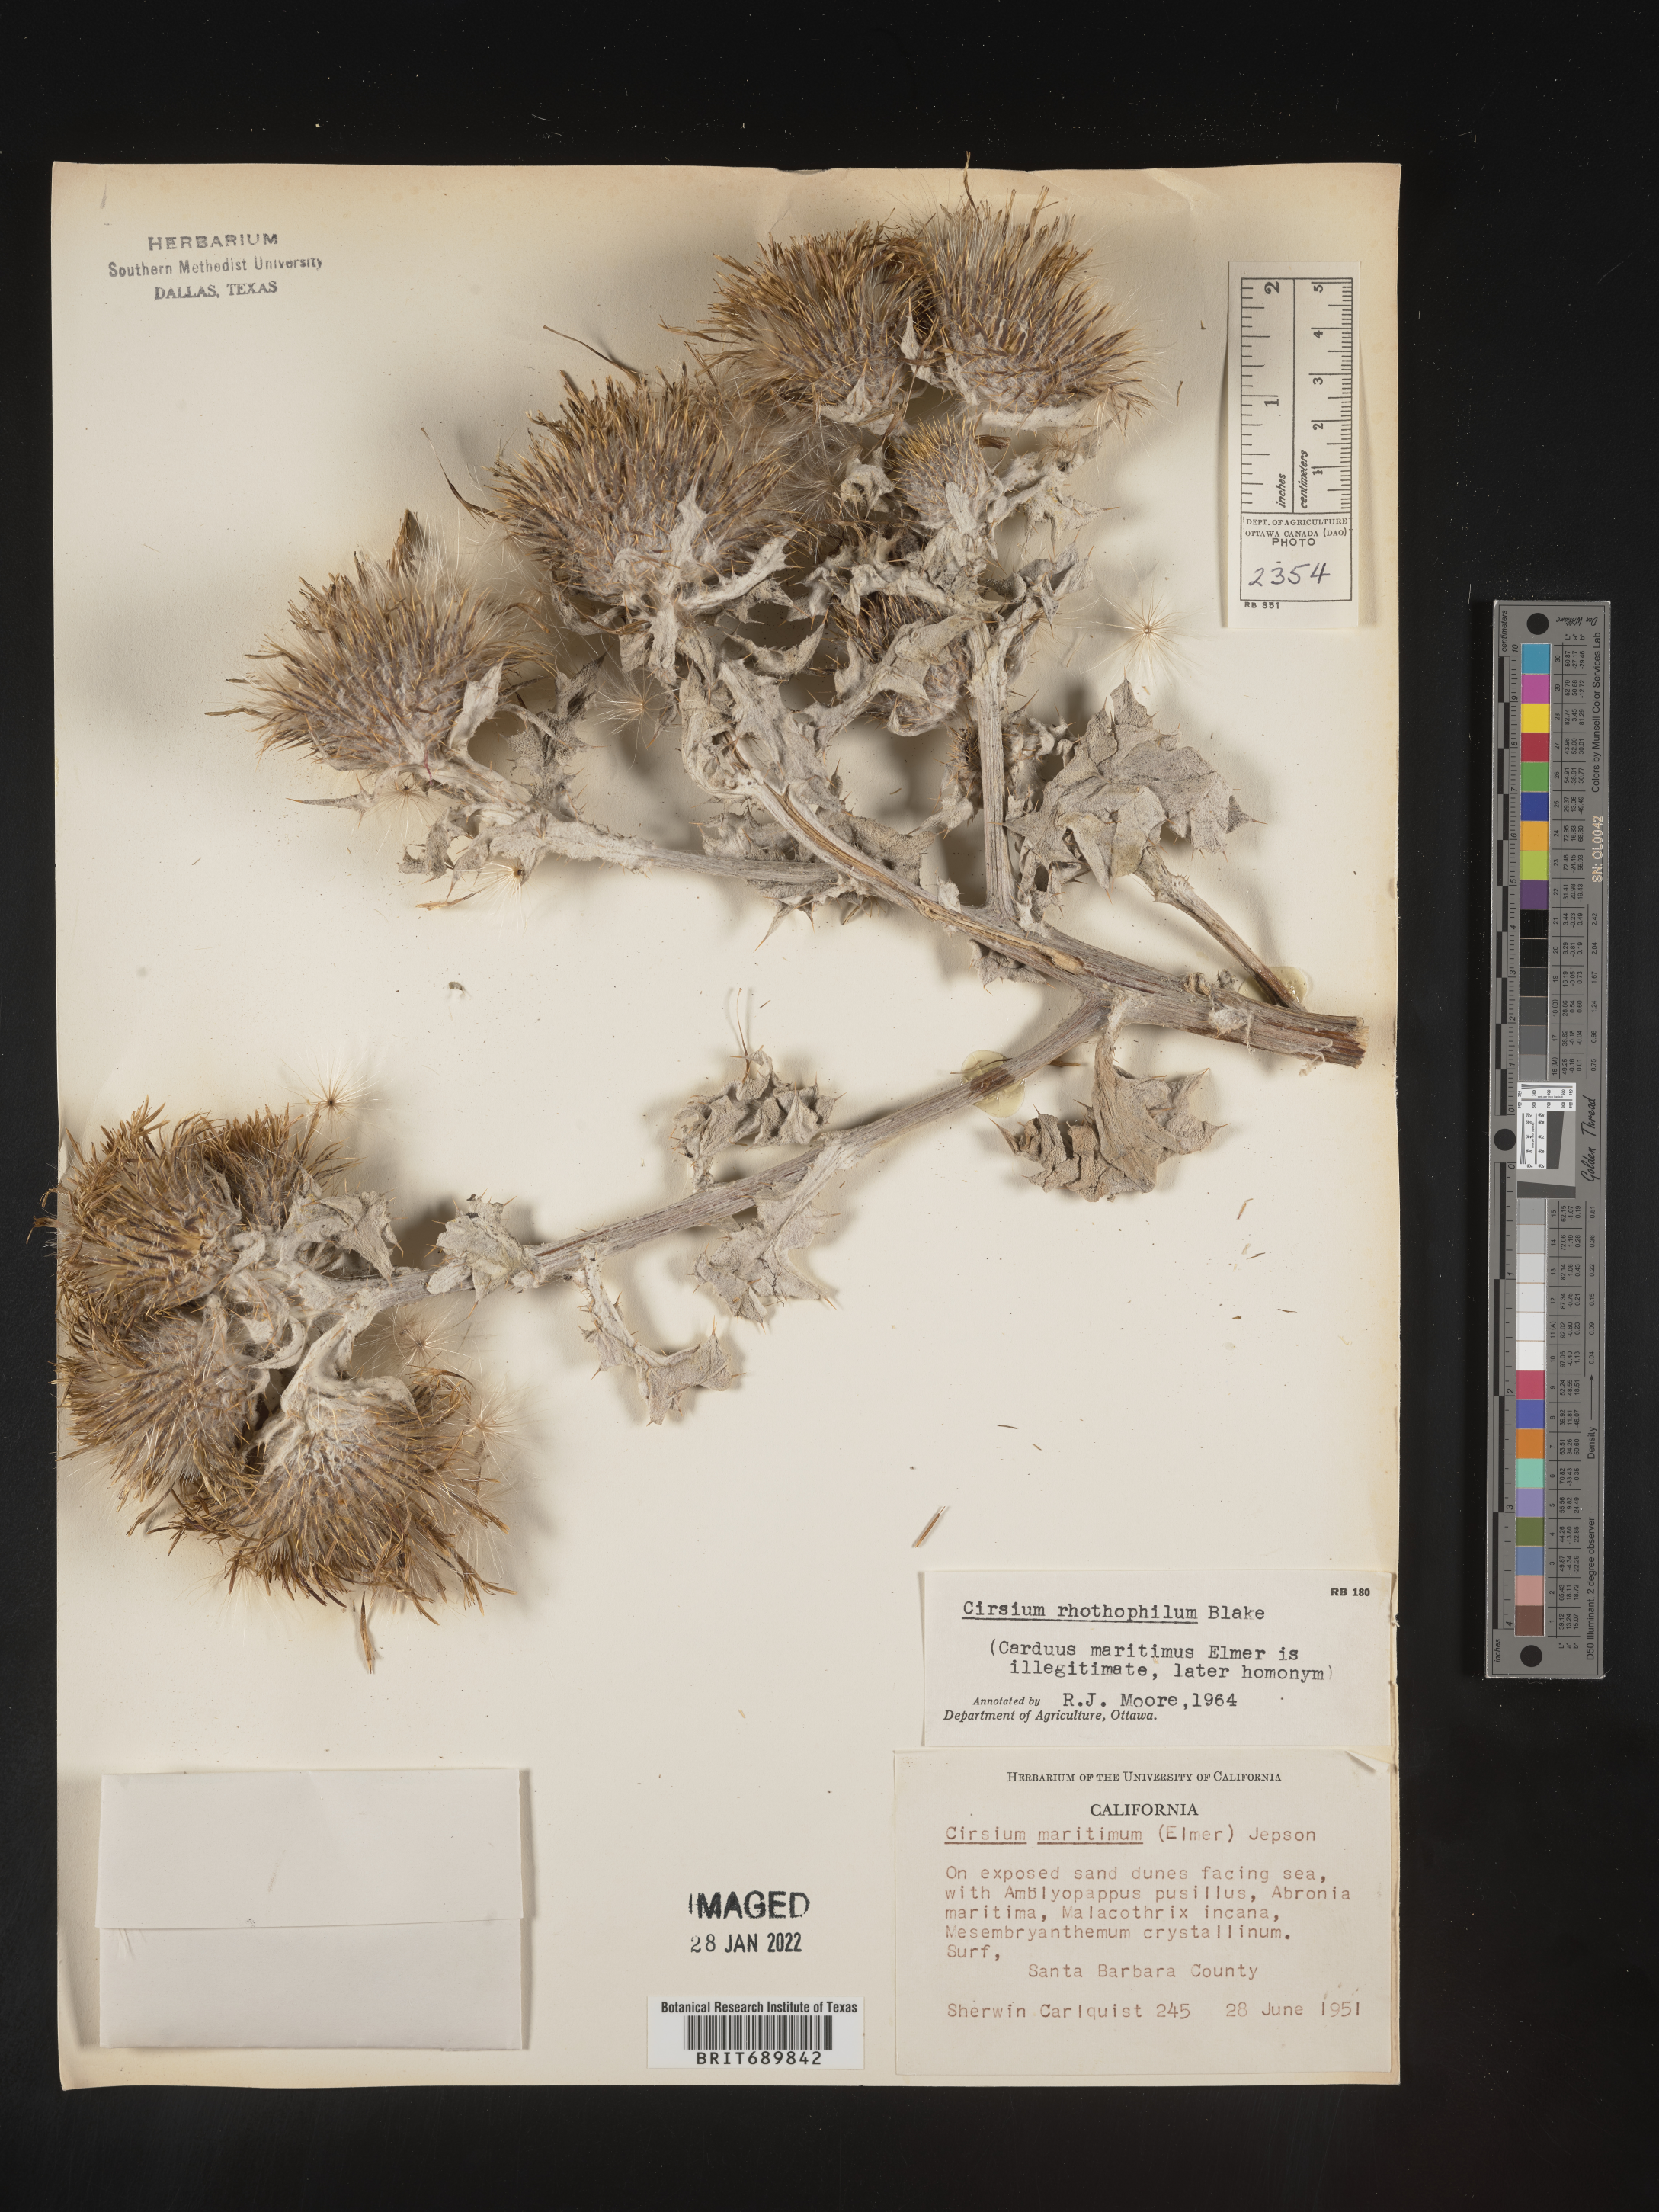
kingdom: Plantae
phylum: Tracheophyta
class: Magnoliopsida
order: Asterales
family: Asteraceae
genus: Cirsium
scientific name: Cirsium
